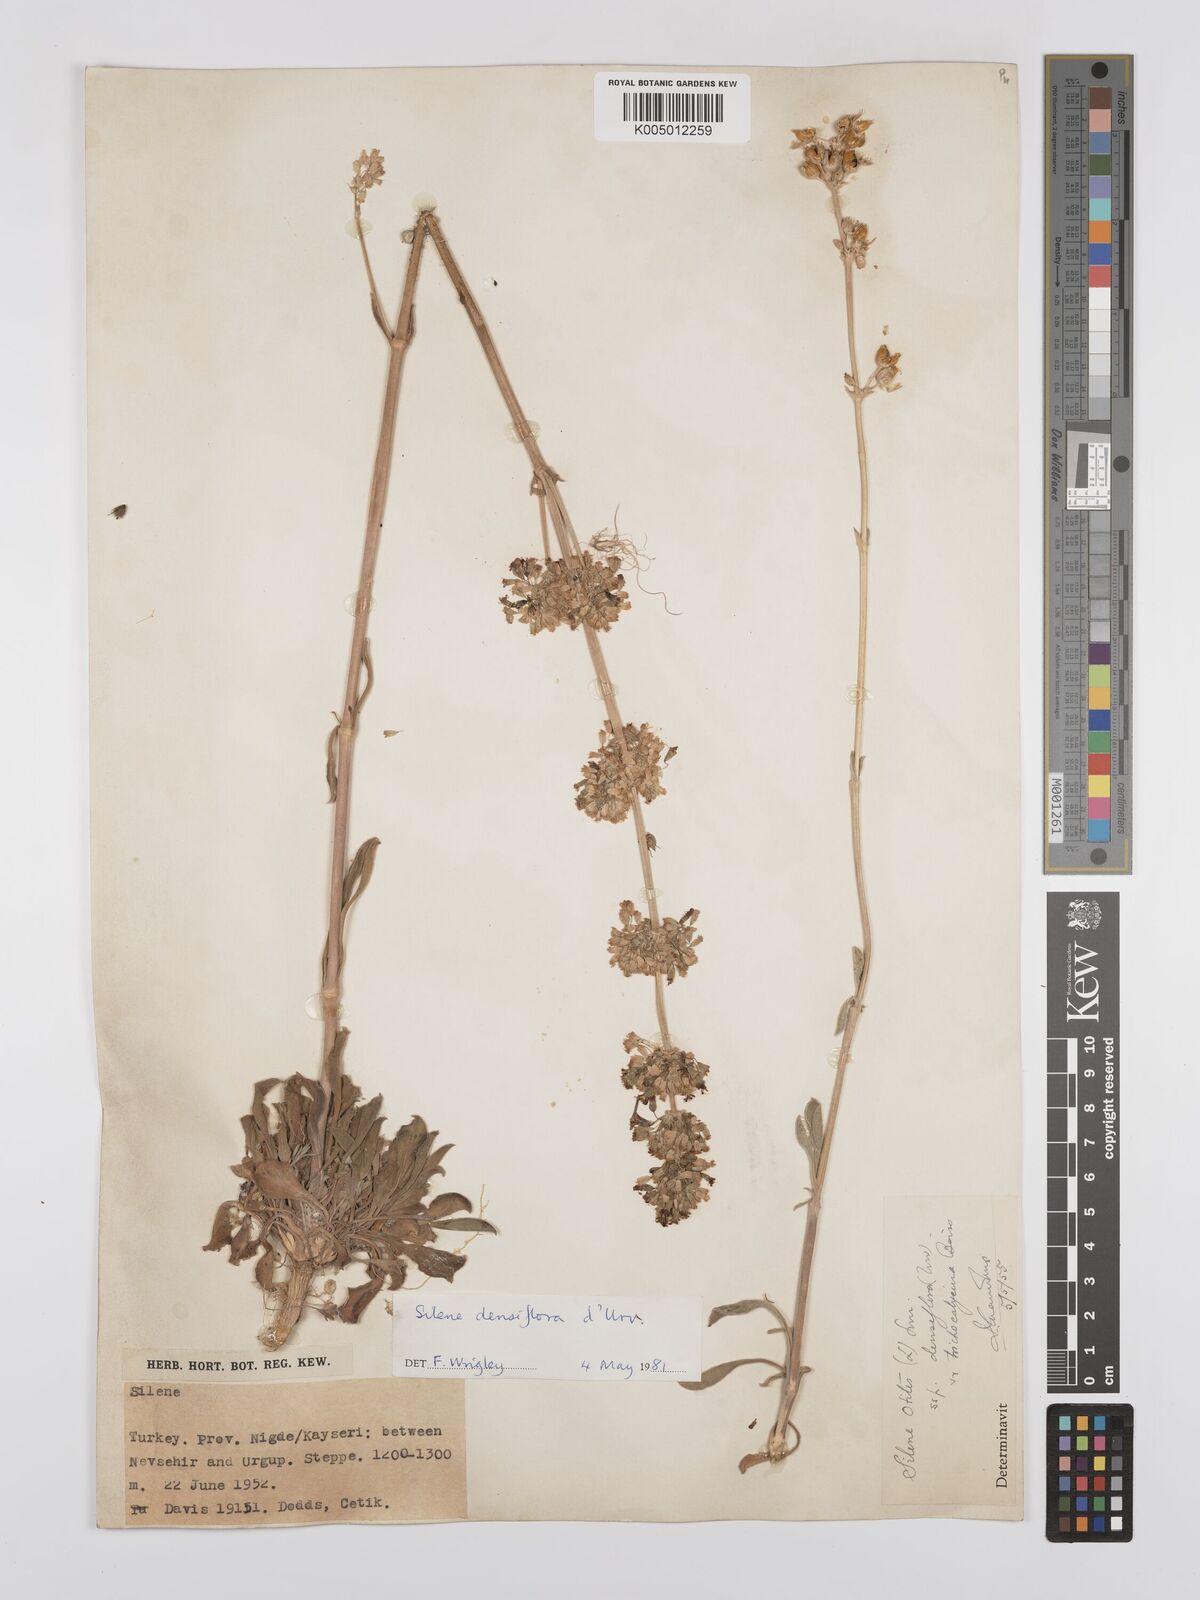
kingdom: Plantae
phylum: Tracheophyta
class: Magnoliopsida
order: Caryophyllales
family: Caryophyllaceae
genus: Silene
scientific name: Silene densiflora
